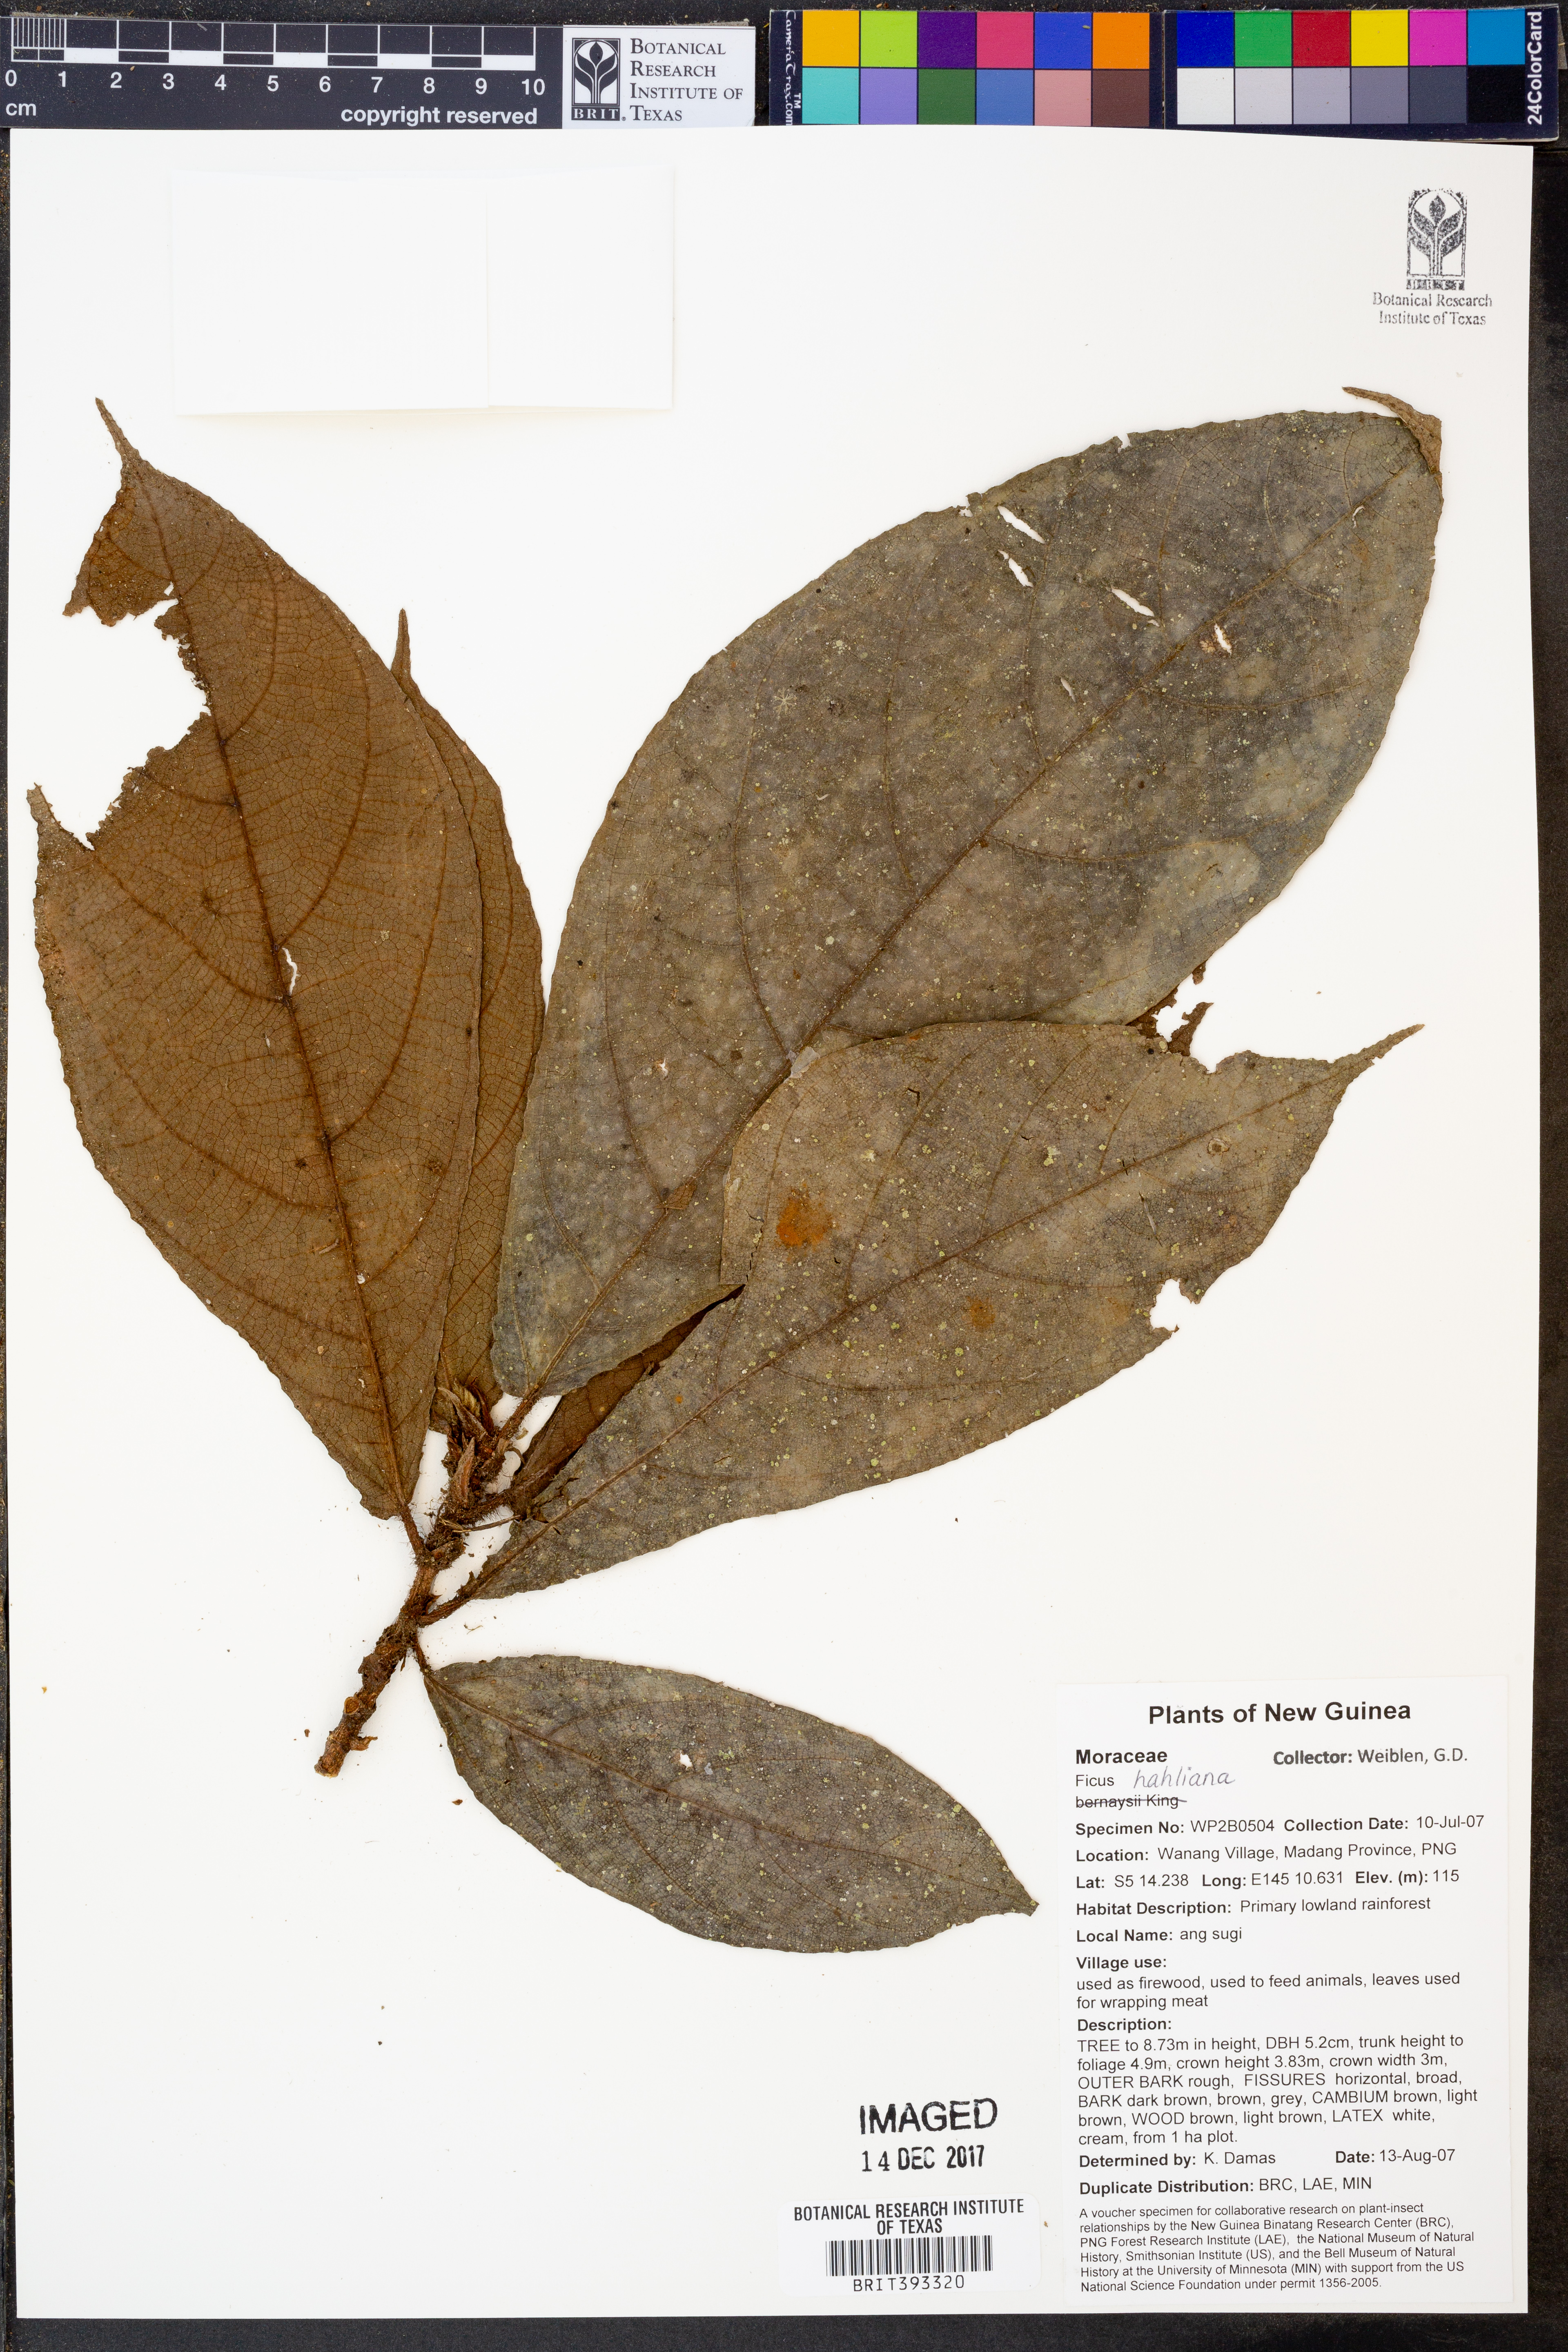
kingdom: Plantae
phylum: Tracheophyta
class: Magnoliopsida
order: Rosales
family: Moraceae
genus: Ficus
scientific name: Ficus hahliana
